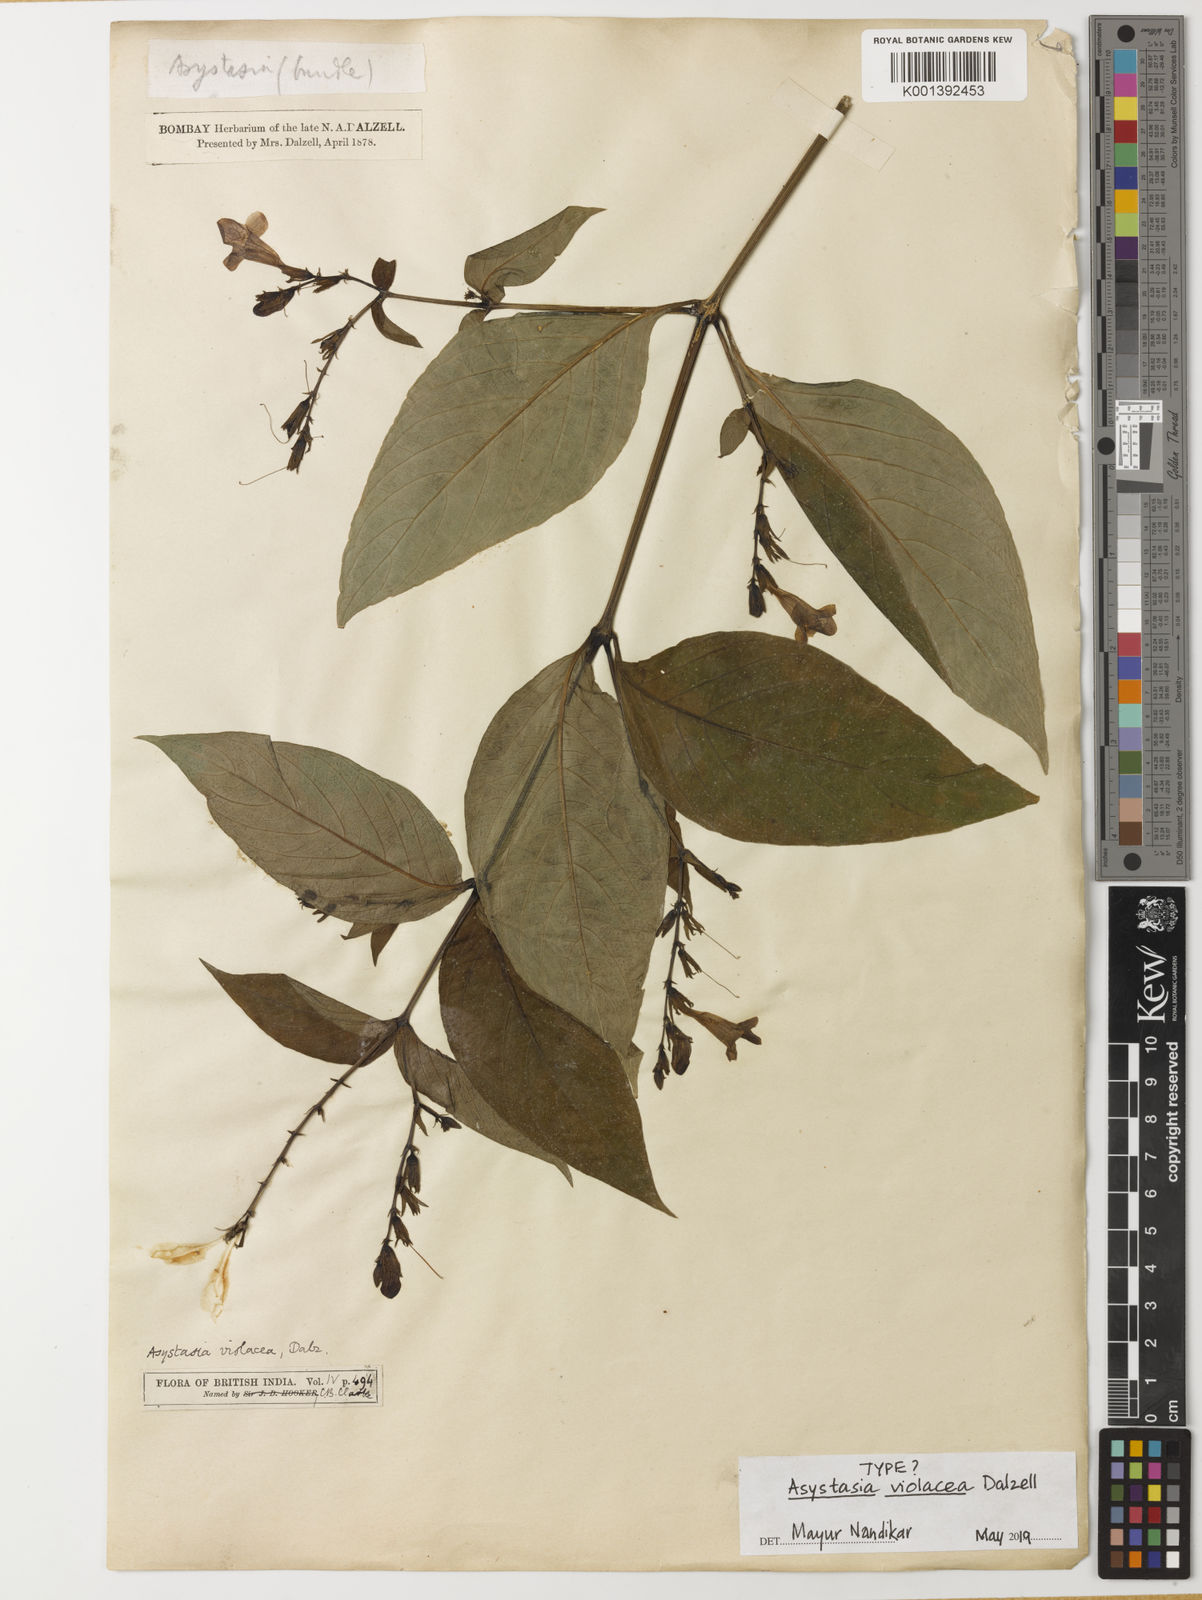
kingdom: Plantae
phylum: Tracheophyta
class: Magnoliopsida
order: Lamiales
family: Acanthaceae
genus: Asystasia
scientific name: Asystasia gangetica
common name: Chinese violet
